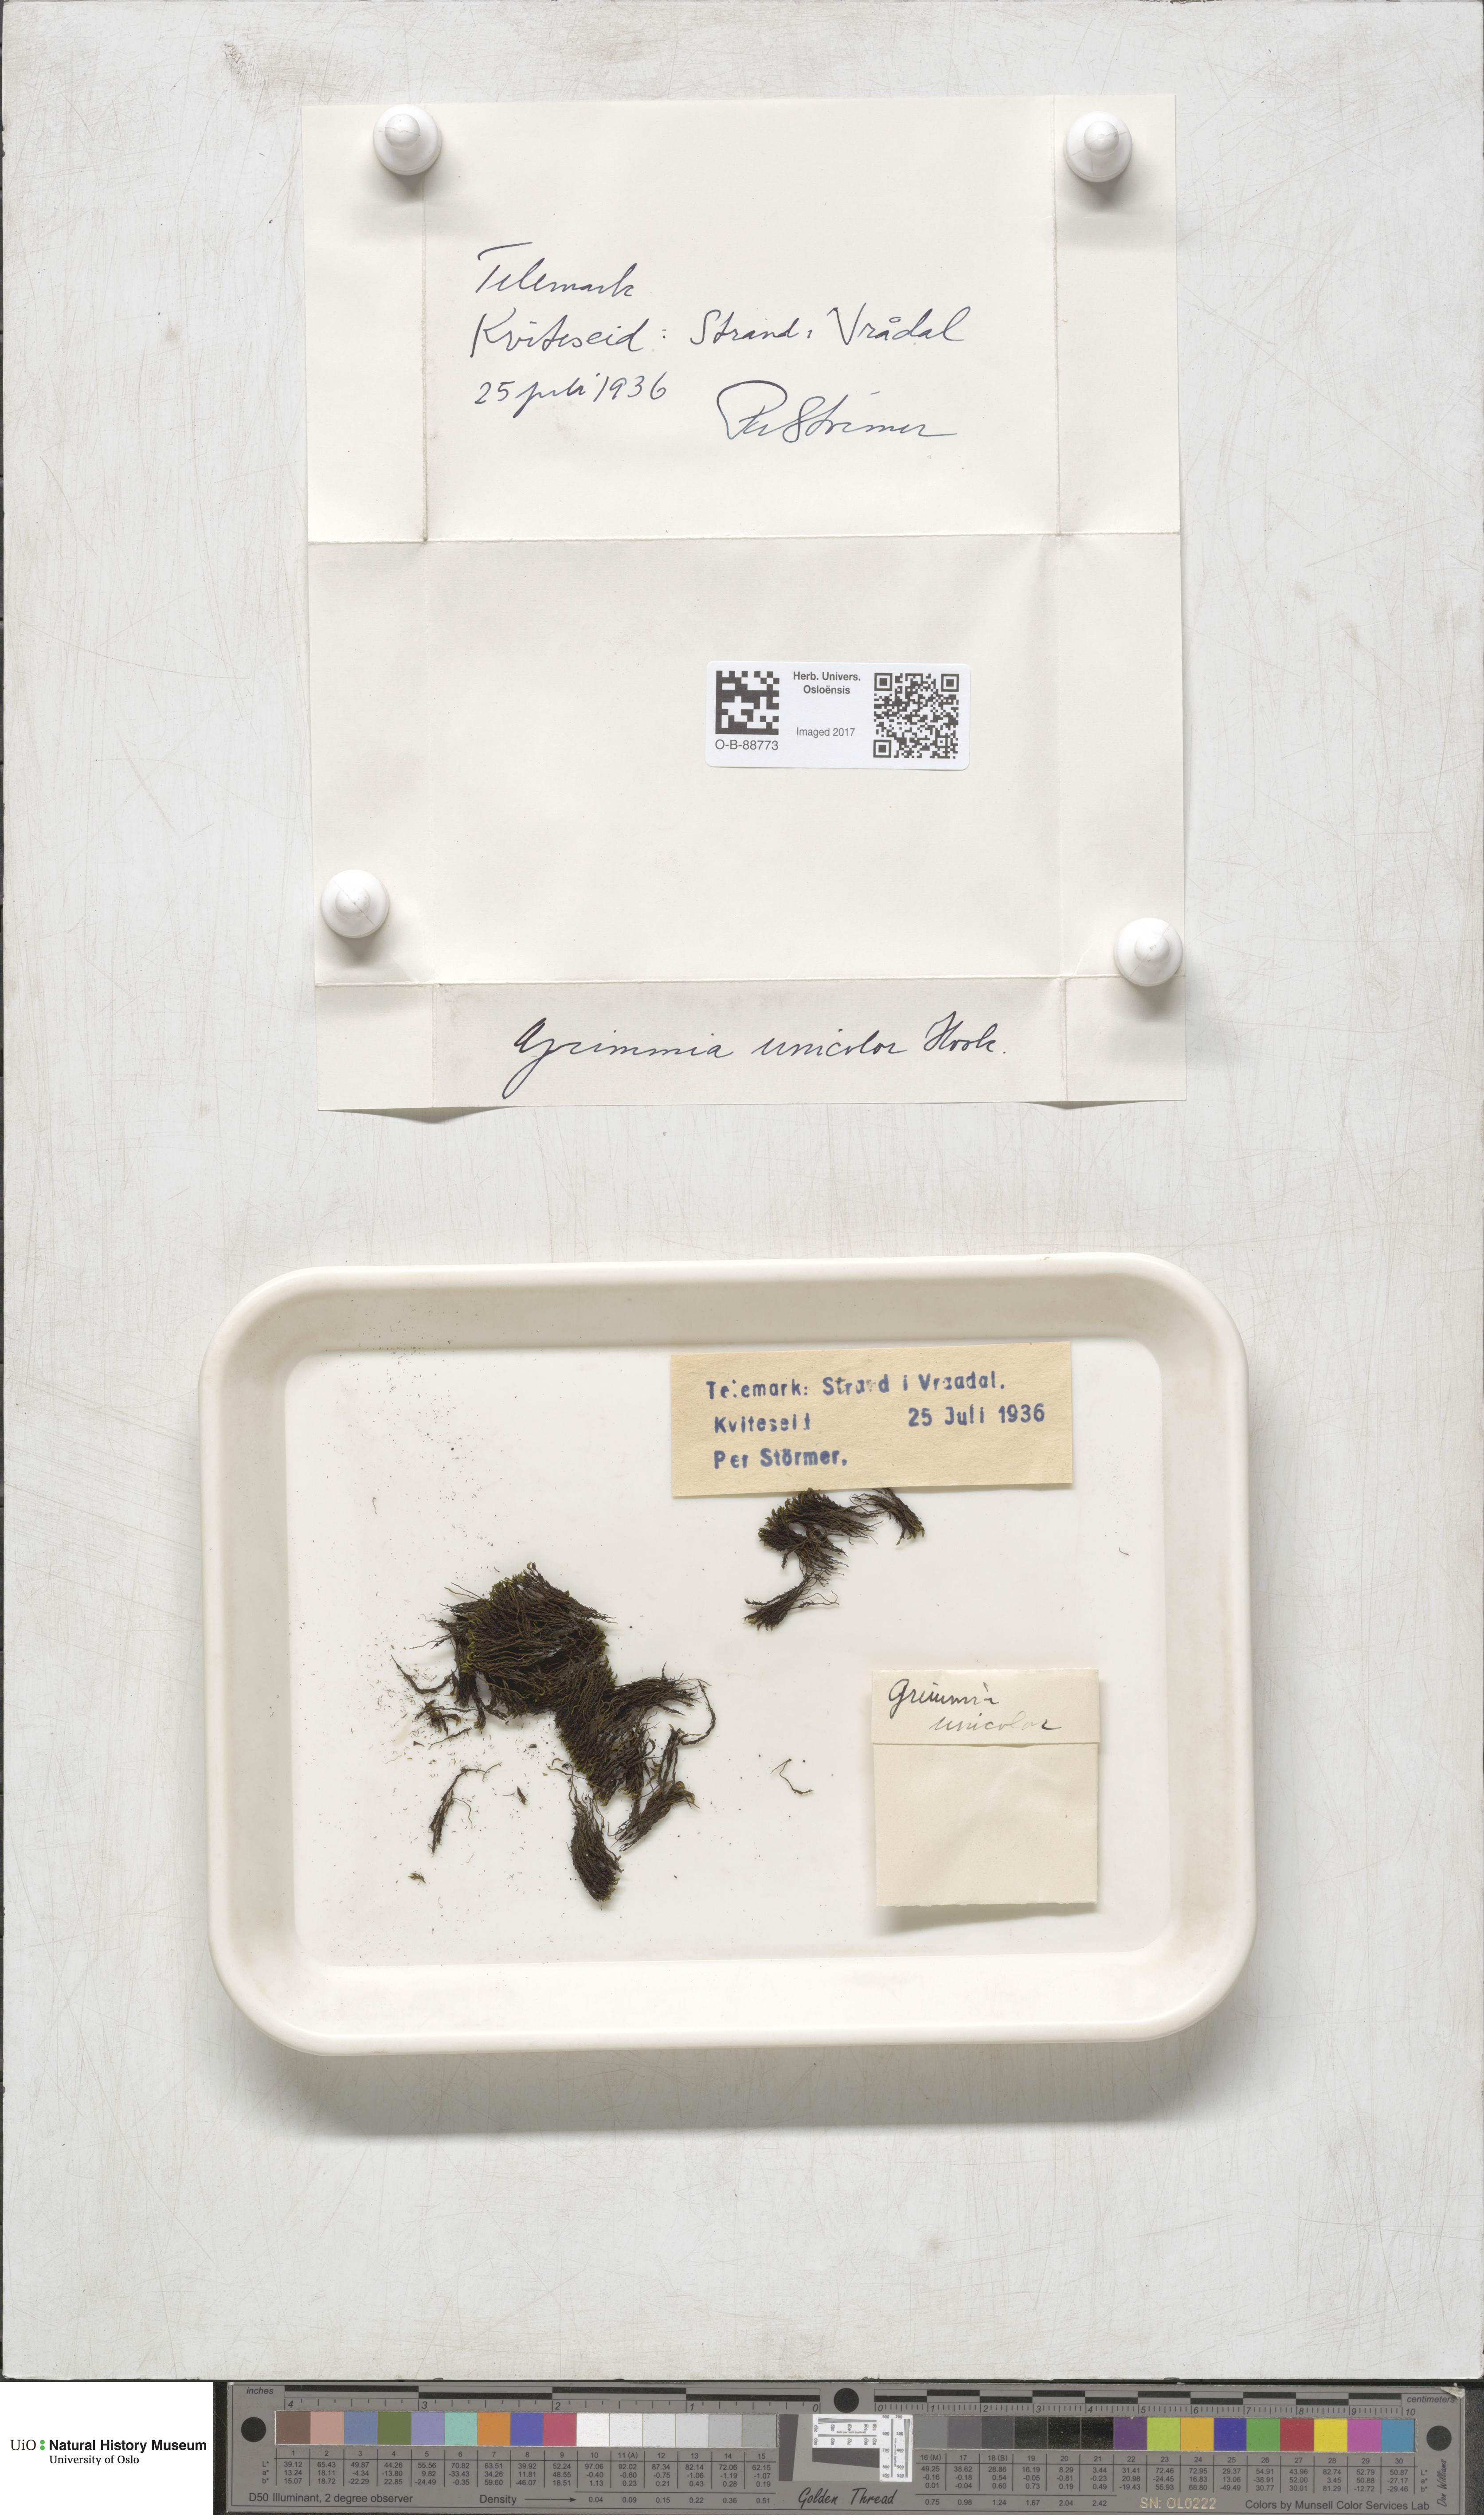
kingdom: Plantae
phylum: Bryophyta
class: Bryopsida
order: Grimmiales
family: Grimmiaceae
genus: Grimmia
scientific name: Grimmia unicolor
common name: Dingy grimmia
